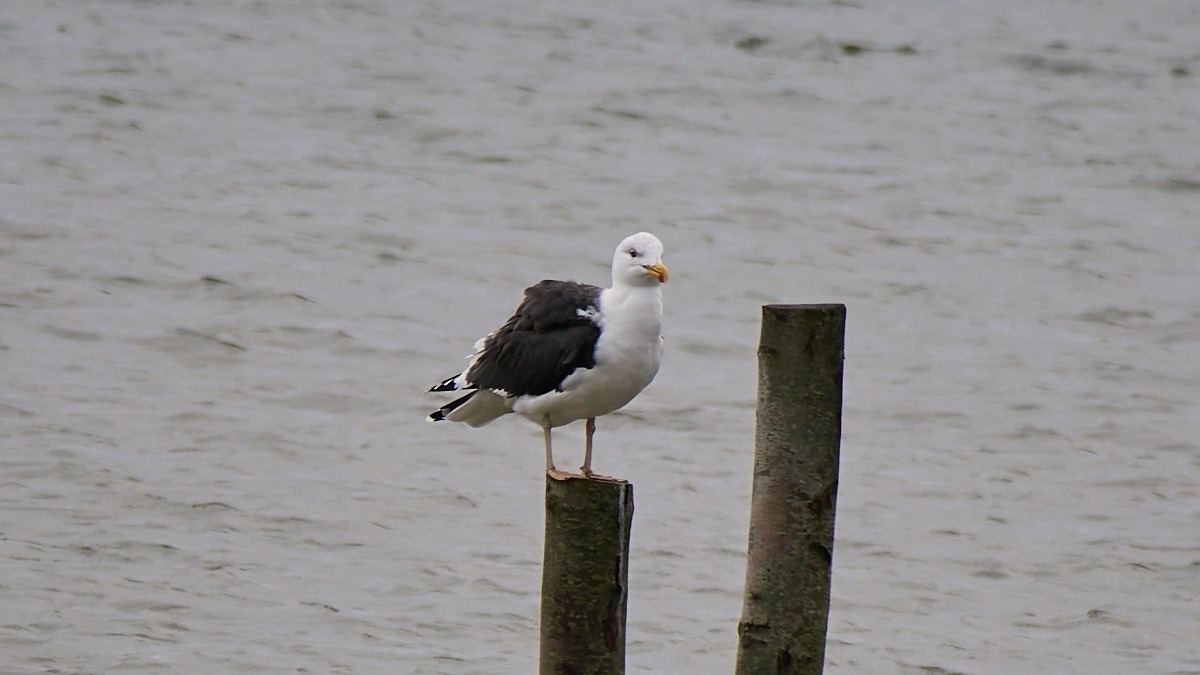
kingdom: Animalia
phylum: Chordata
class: Aves
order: Charadriiformes
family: Laridae
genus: Larus
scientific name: Larus marinus
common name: Svartbag
